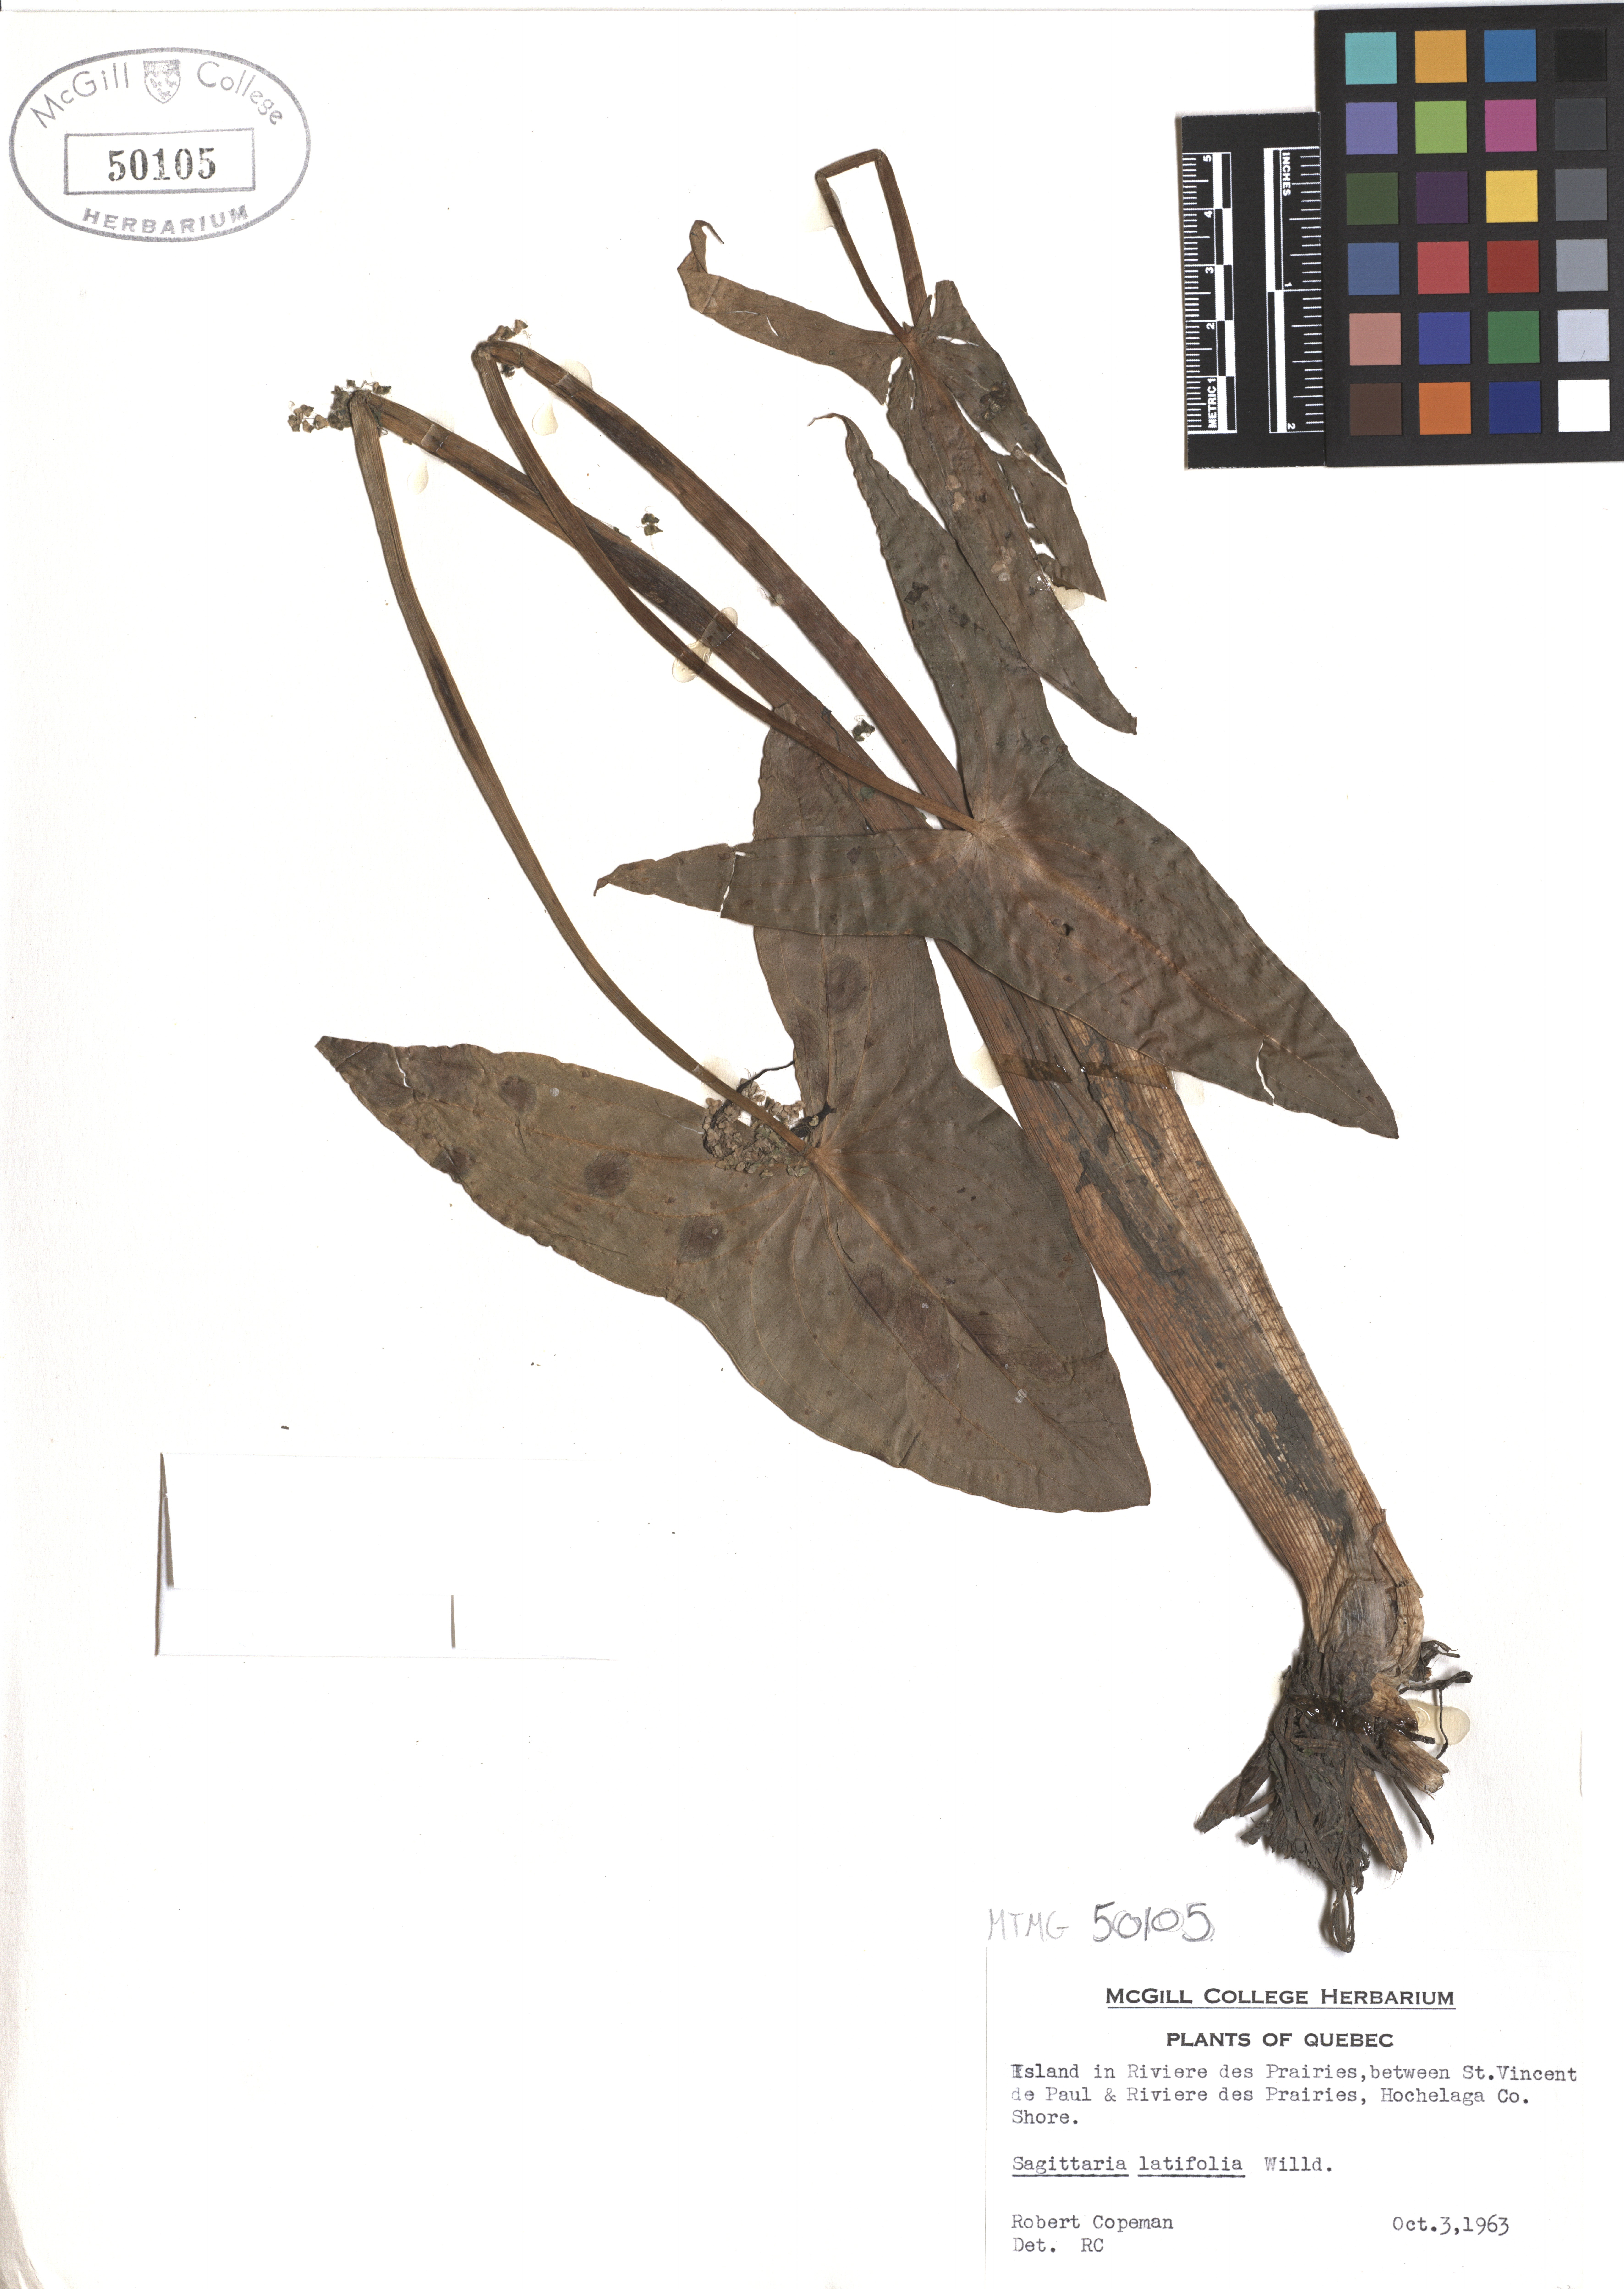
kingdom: Plantae
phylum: Tracheophyta
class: Liliopsida
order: Alismatales
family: Alismataceae
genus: Sagittaria
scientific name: Sagittaria latifolia
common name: Duck-potato
